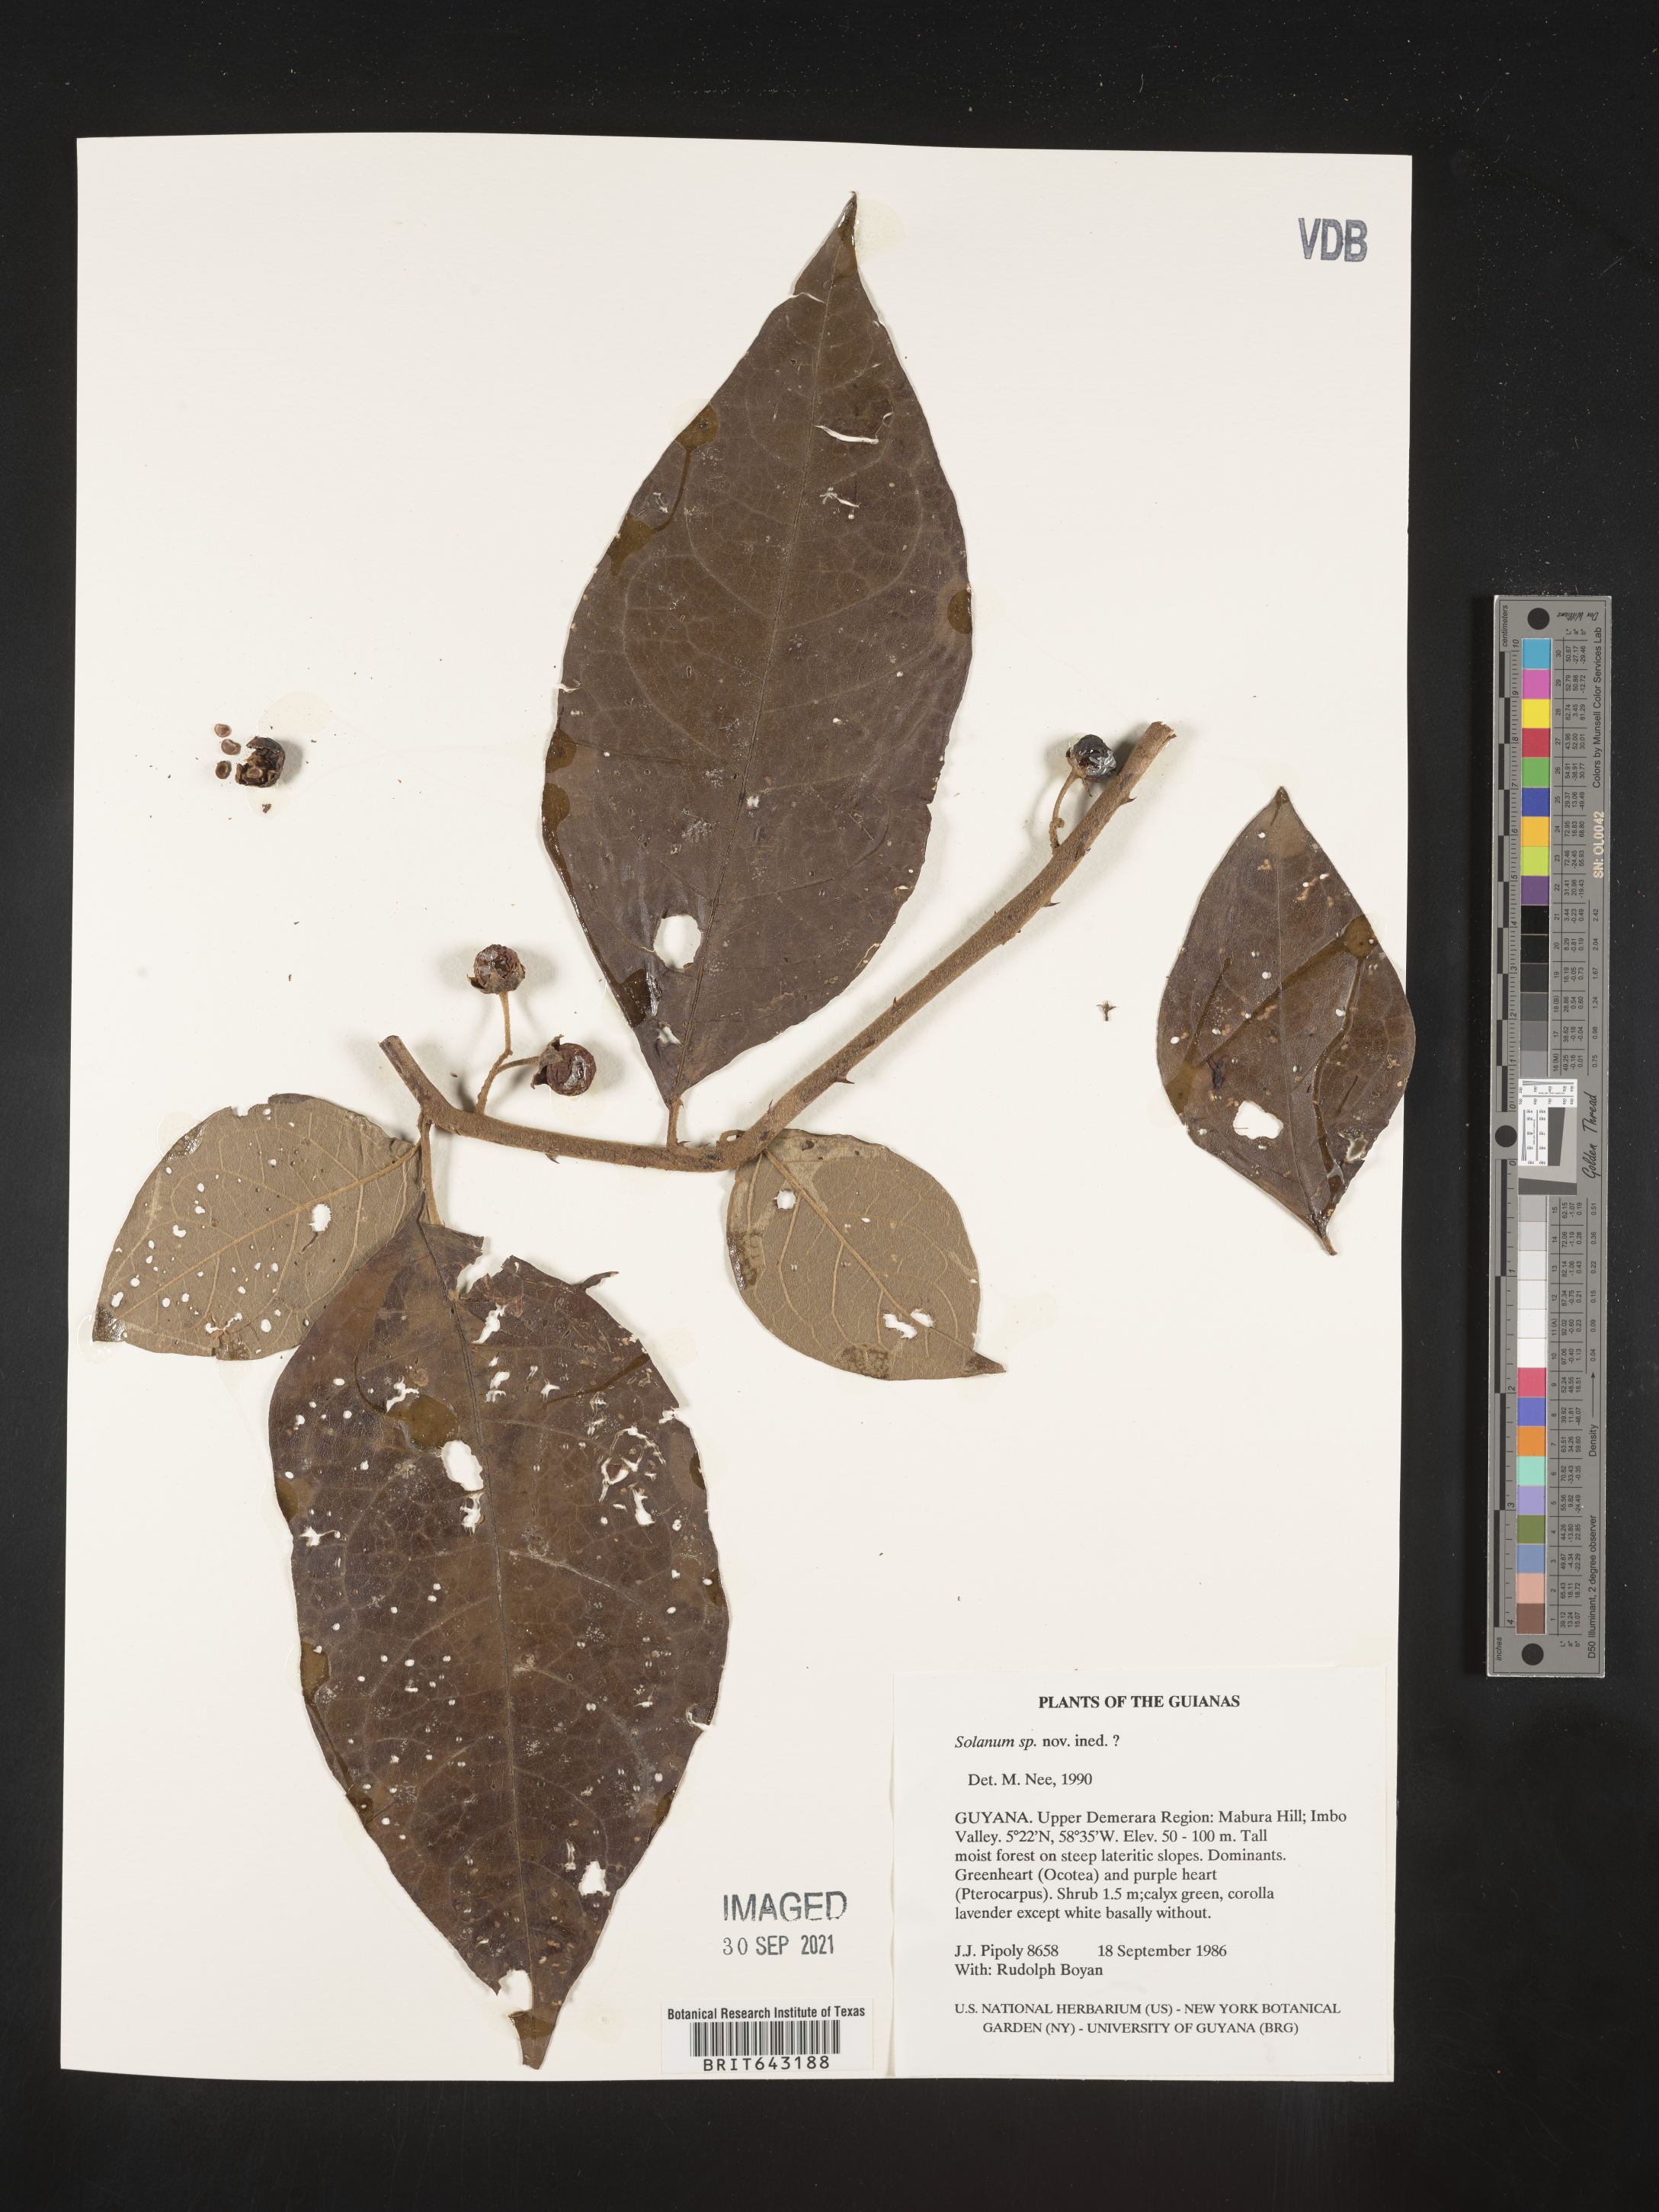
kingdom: Plantae
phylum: Tracheophyta
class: Magnoliopsida
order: Solanales
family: Solanaceae
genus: Solanum
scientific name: Solanum
